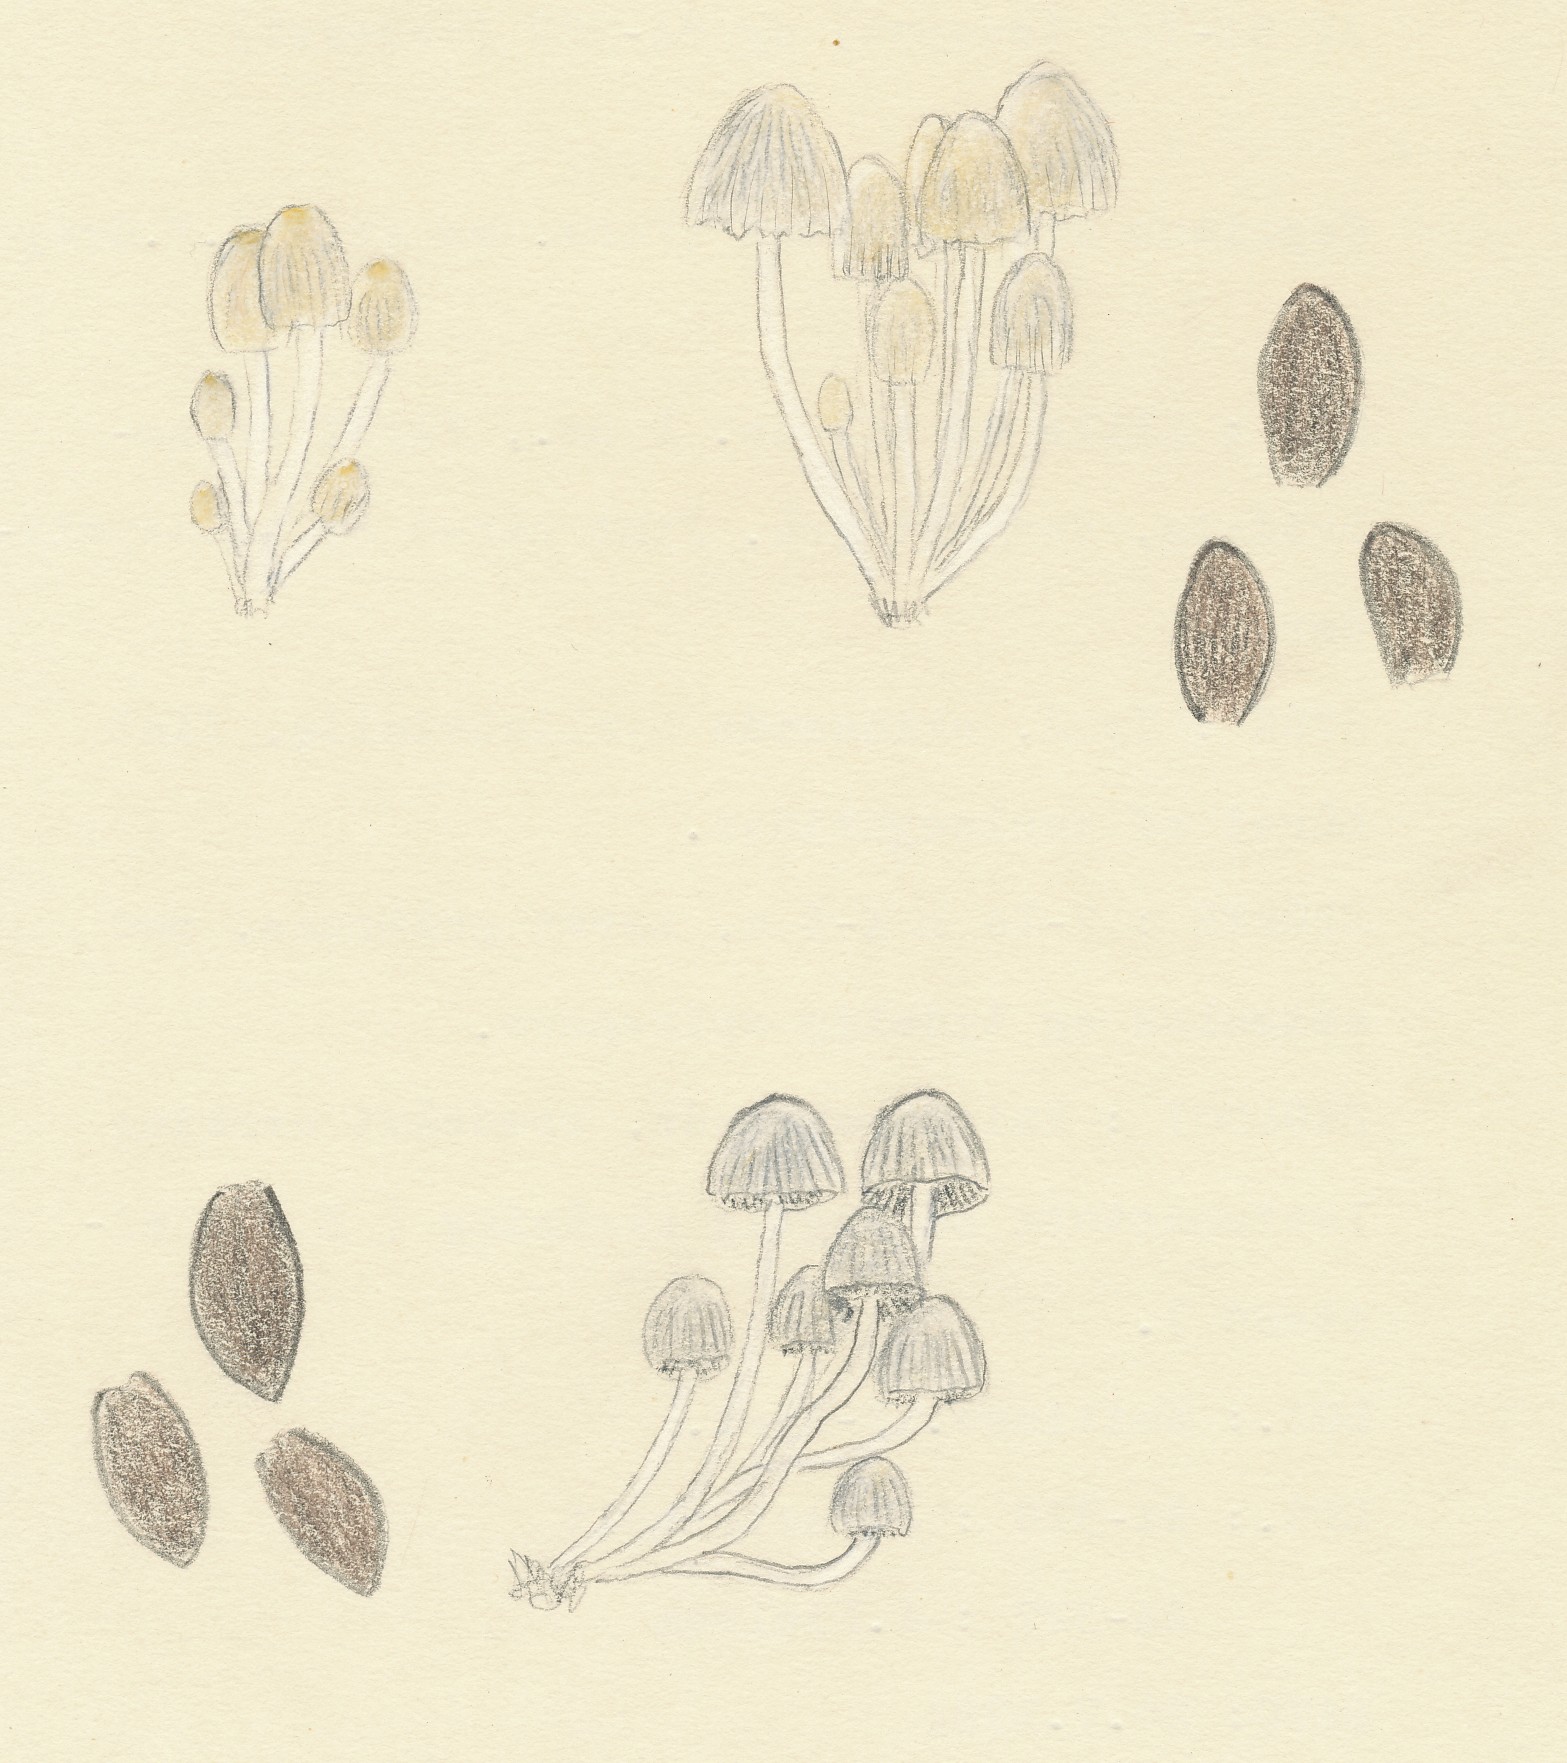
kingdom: Fungi
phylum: Basidiomycota
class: Agaricomycetes
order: Agaricales
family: Psathyrellaceae
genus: Coprinellus
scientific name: Coprinellus disseminatus
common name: bredsået blækhat
